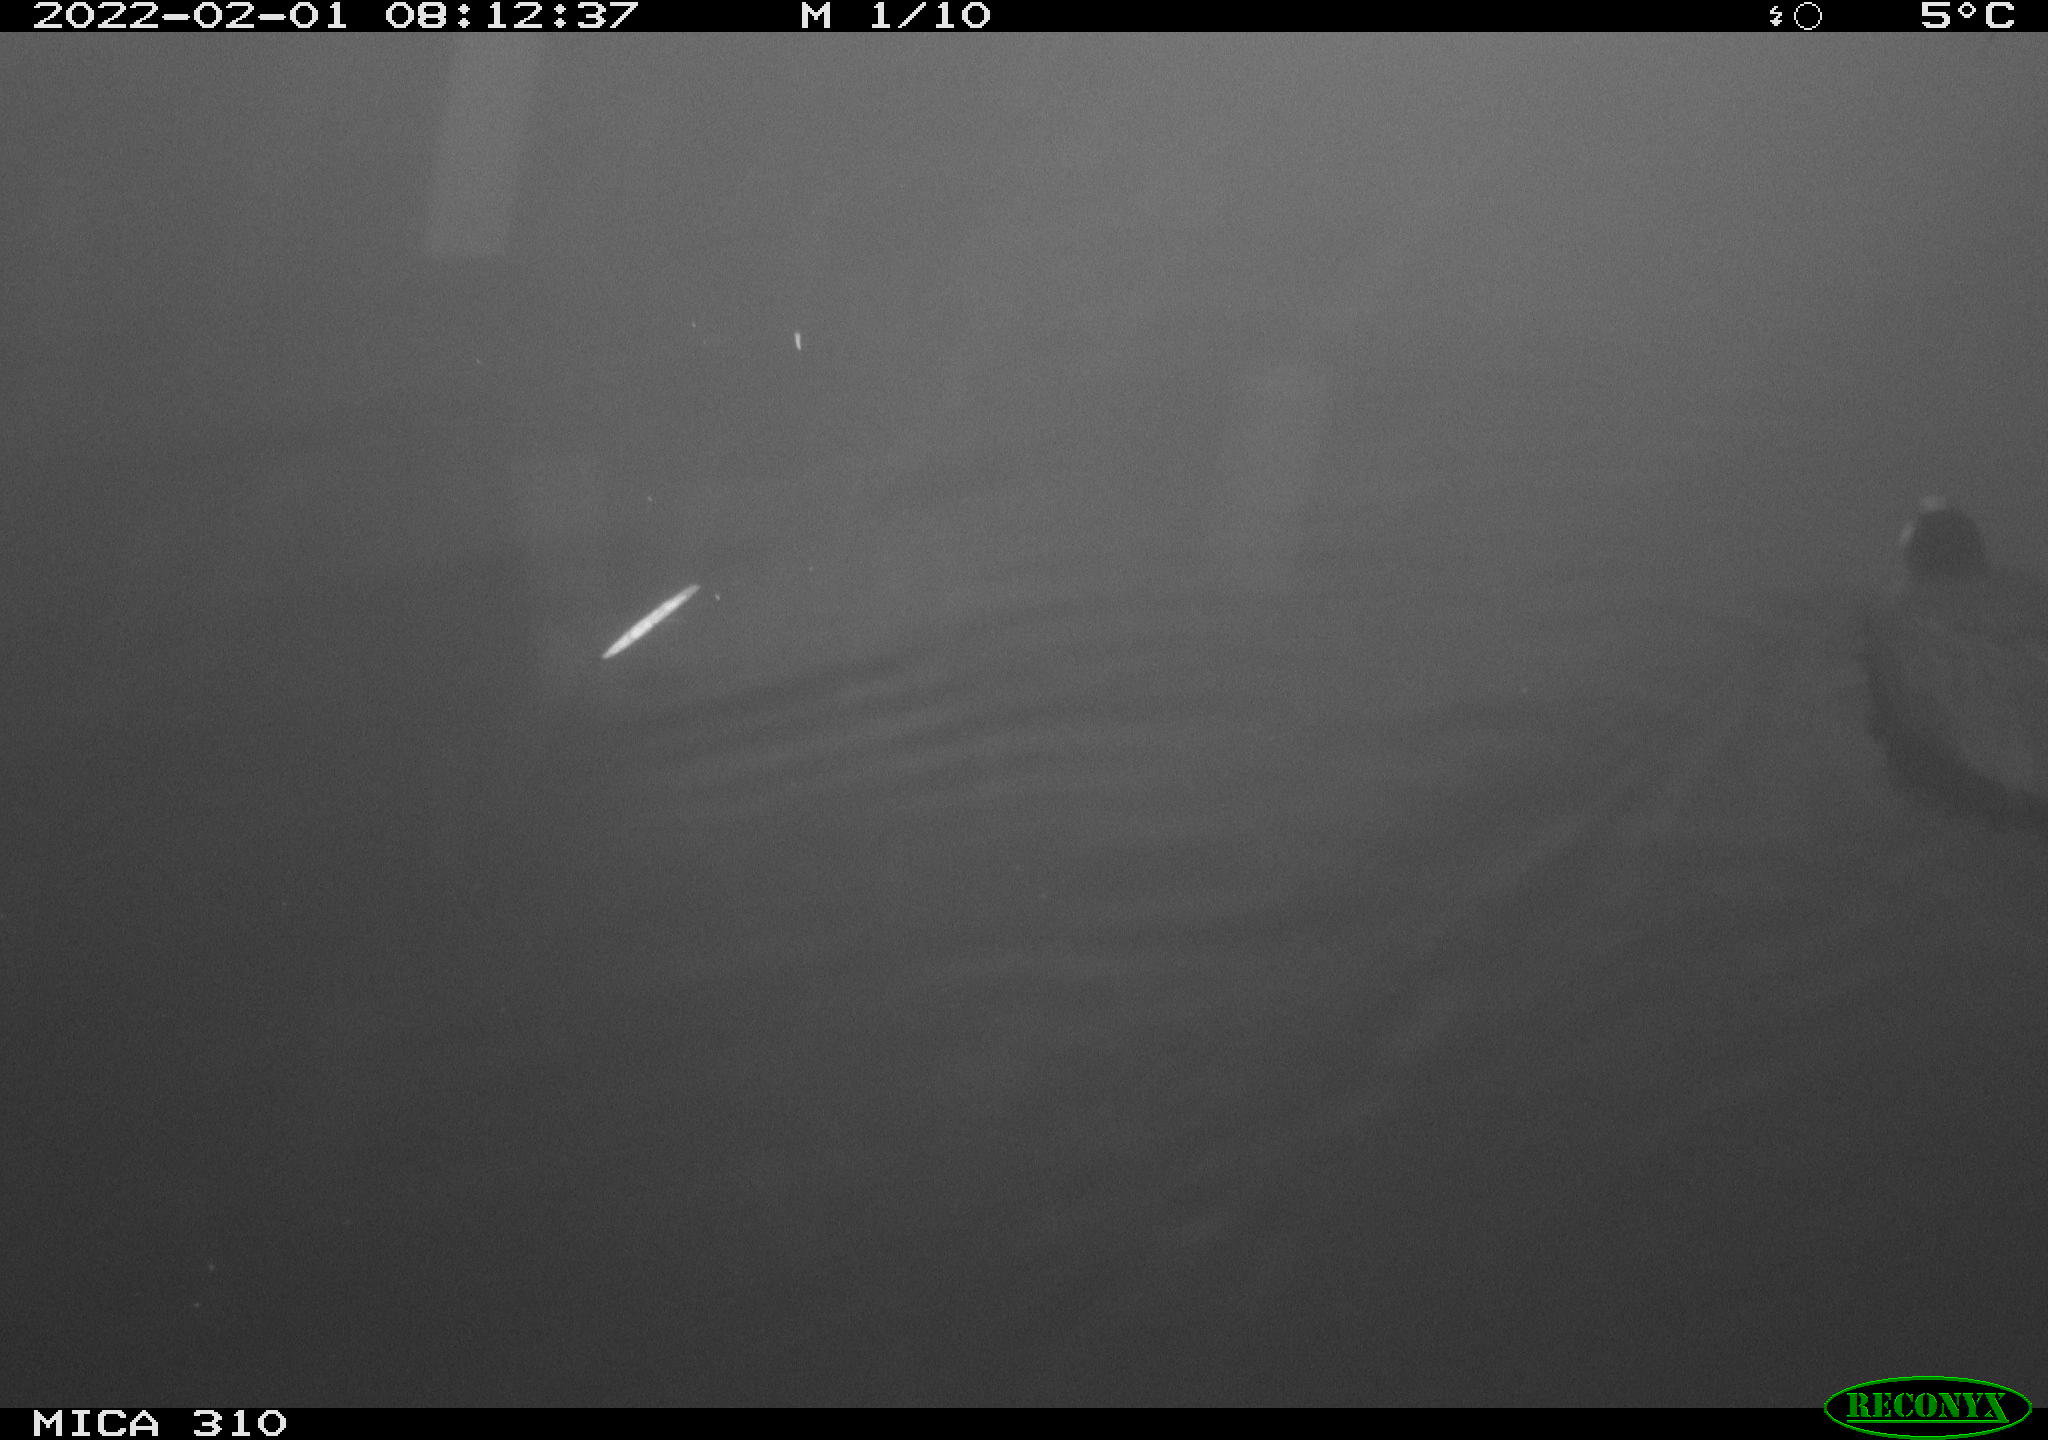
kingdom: Animalia
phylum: Chordata
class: Aves
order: Gruiformes
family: Rallidae
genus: Fulica
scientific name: Fulica atra
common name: Eurasian coot
